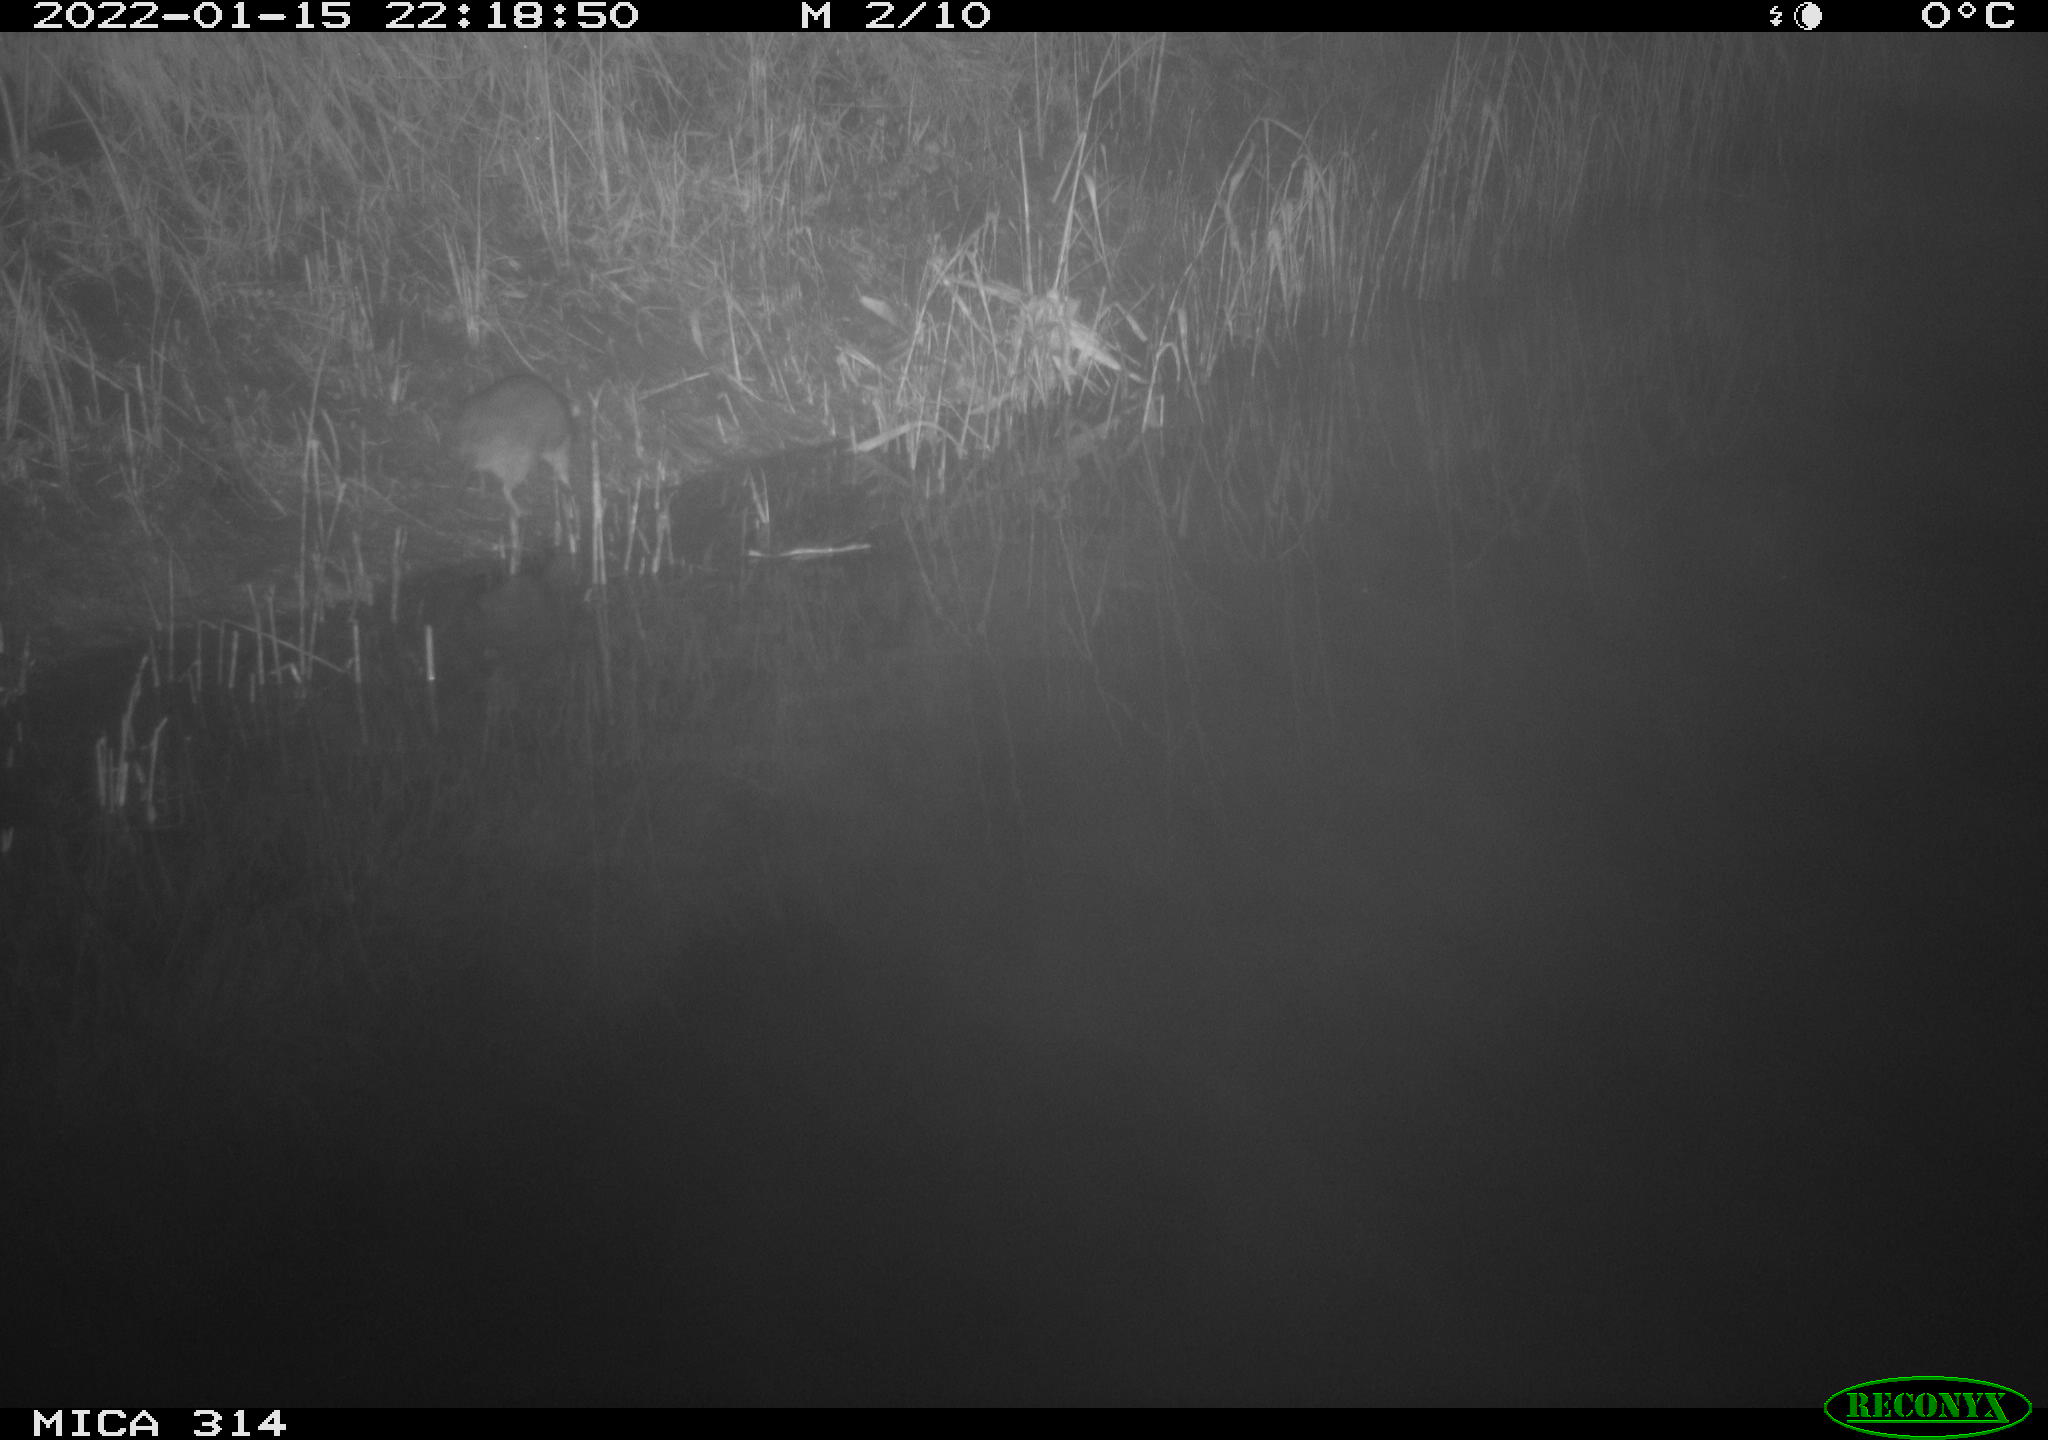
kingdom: Animalia
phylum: Chordata
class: Mammalia
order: Rodentia
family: Muridae
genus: Rattus
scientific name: Rattus norvegicus
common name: Brown rat
